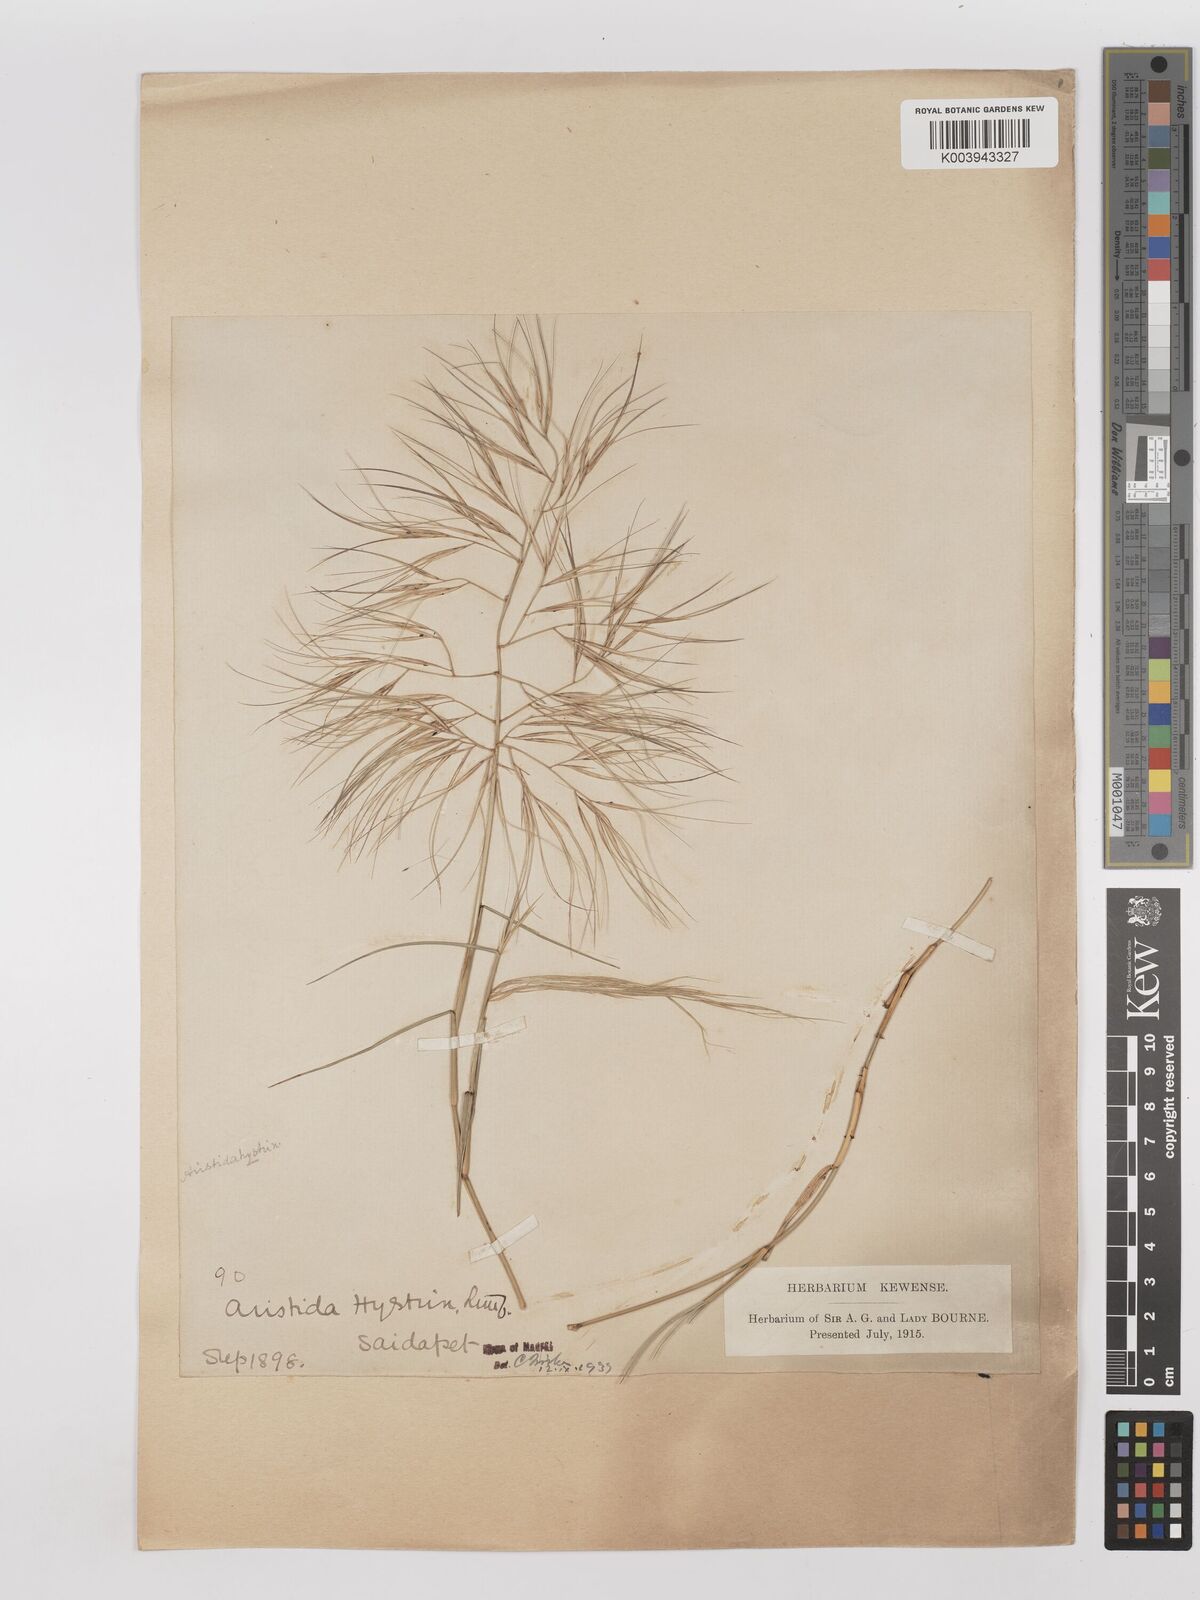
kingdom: Plantae
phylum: Tracheophyta
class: Liliopsida
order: Poales
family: Poaceae
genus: Aristida
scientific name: Aristida hystrix
